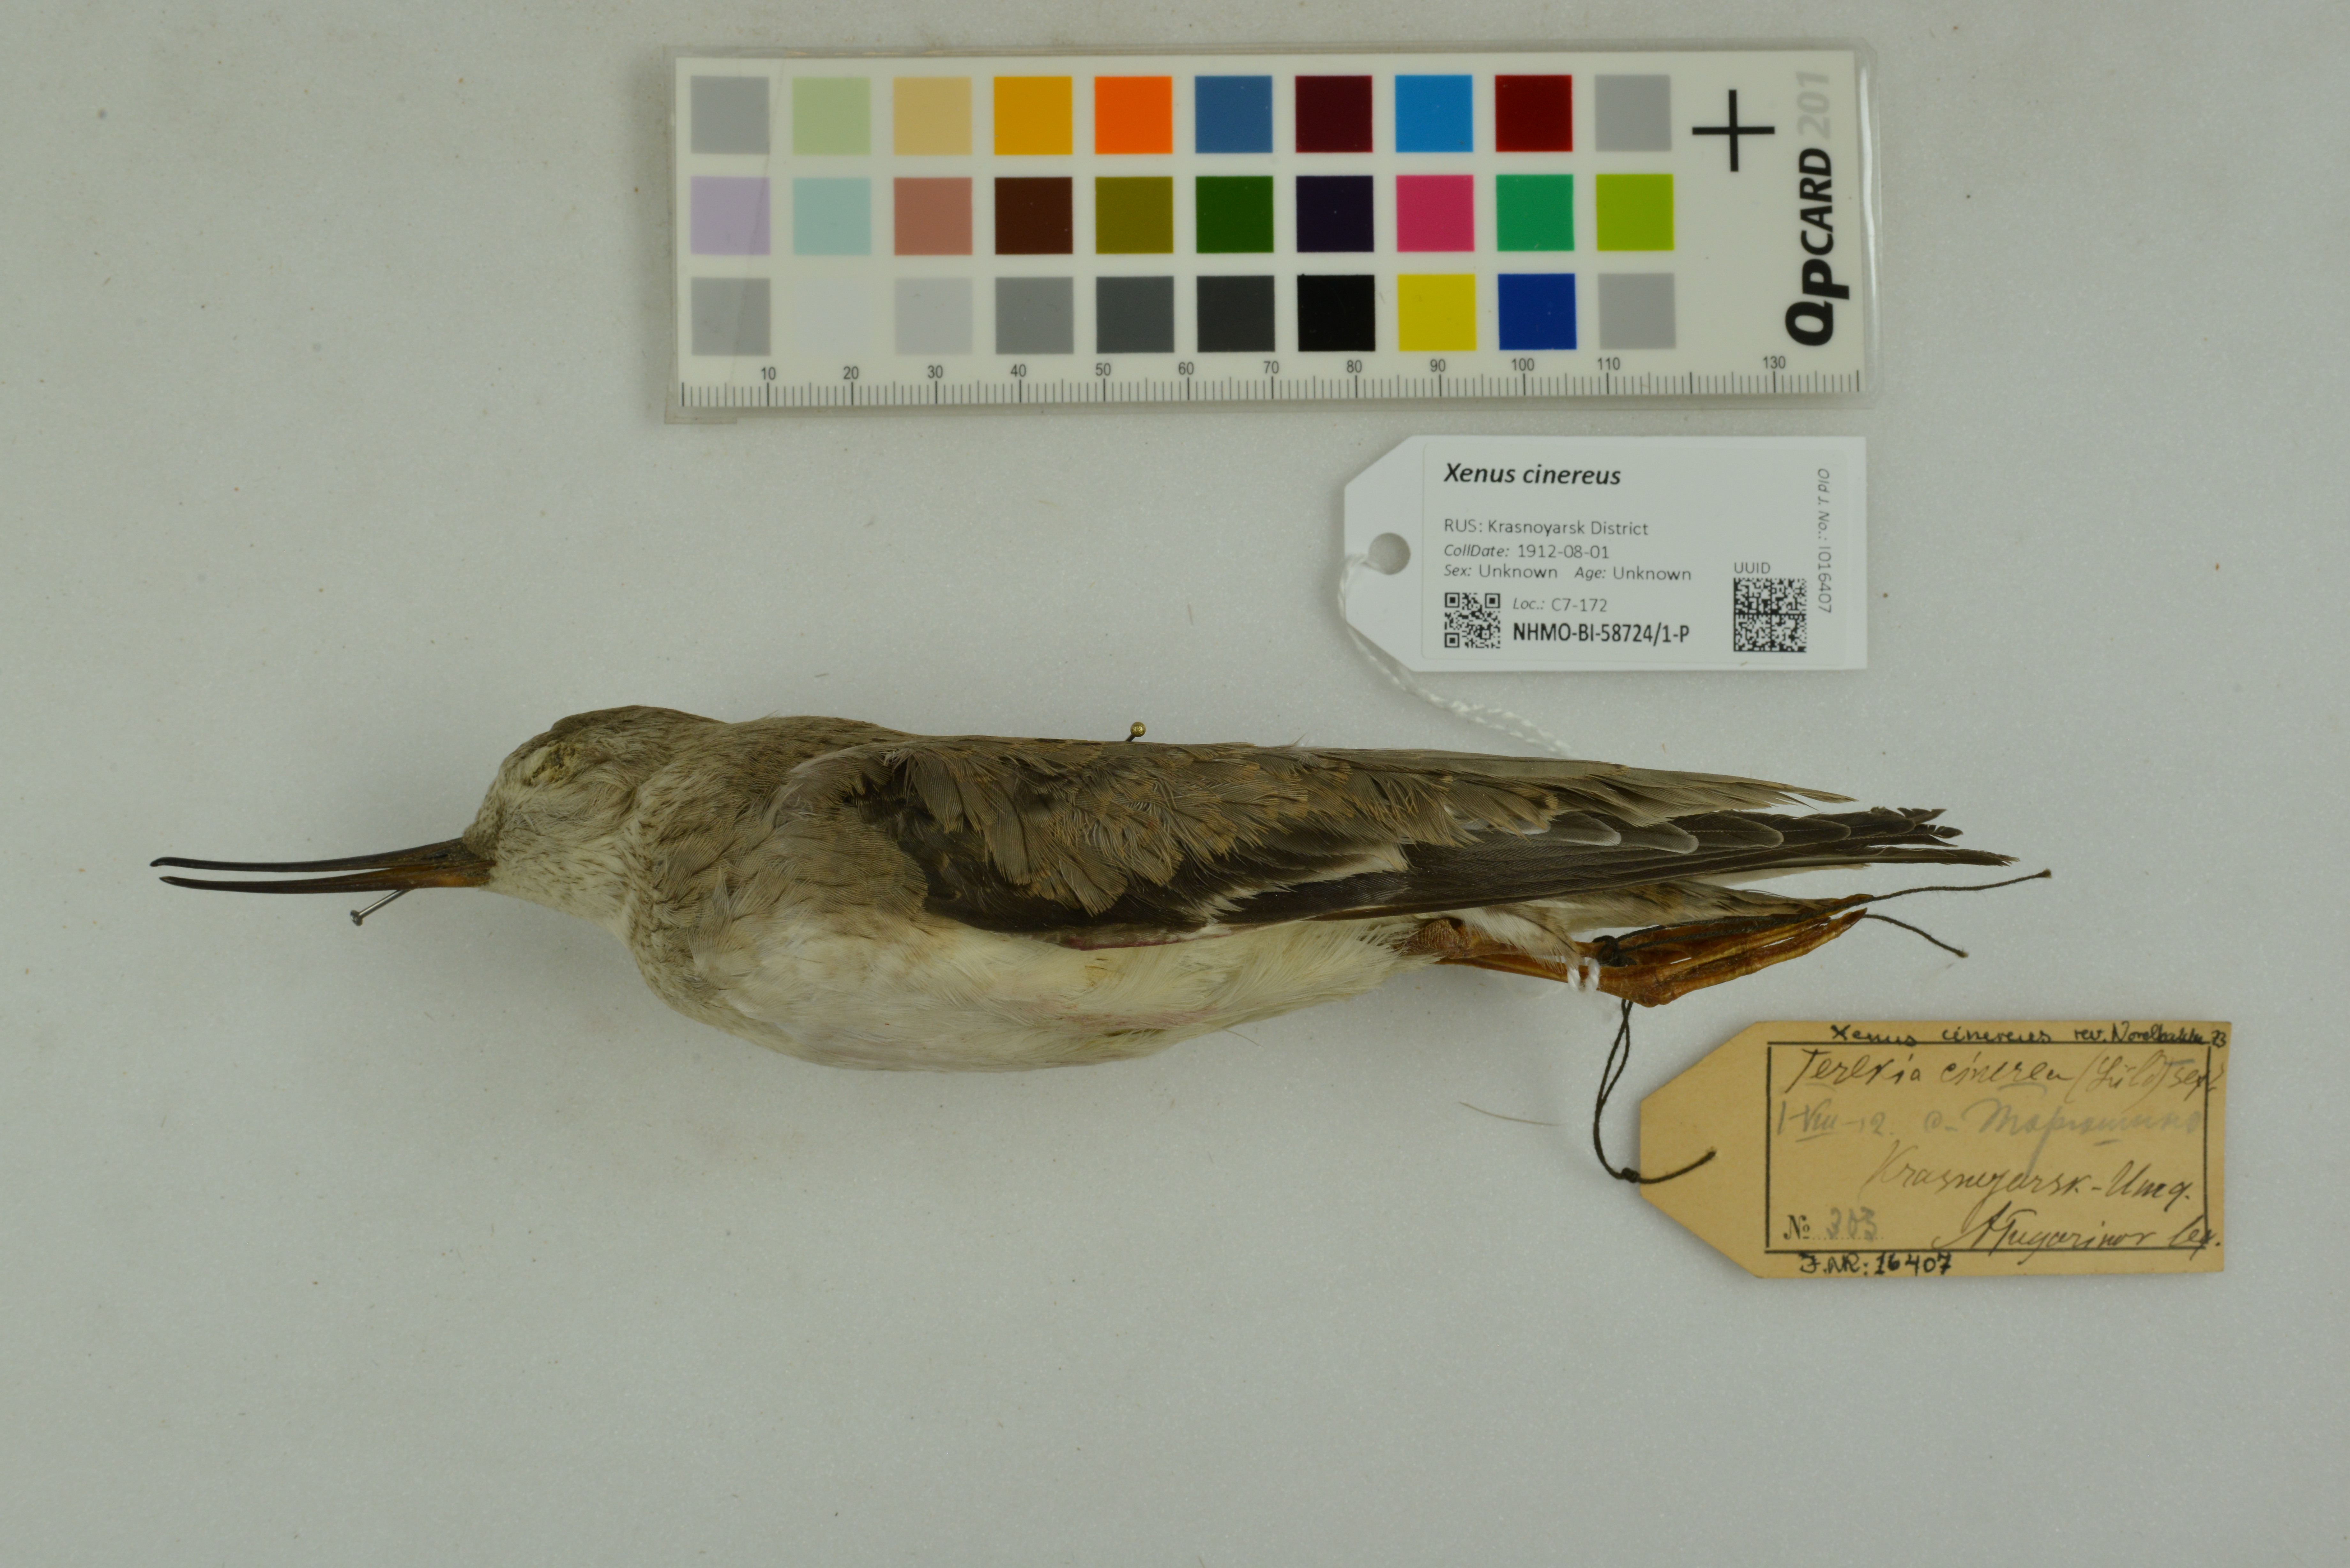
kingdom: Animalia
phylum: Chordata
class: Aves
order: Charadriiformes
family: Scolopacidae
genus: Xenus
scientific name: Xenus cinereus
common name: Terek sandpiper
